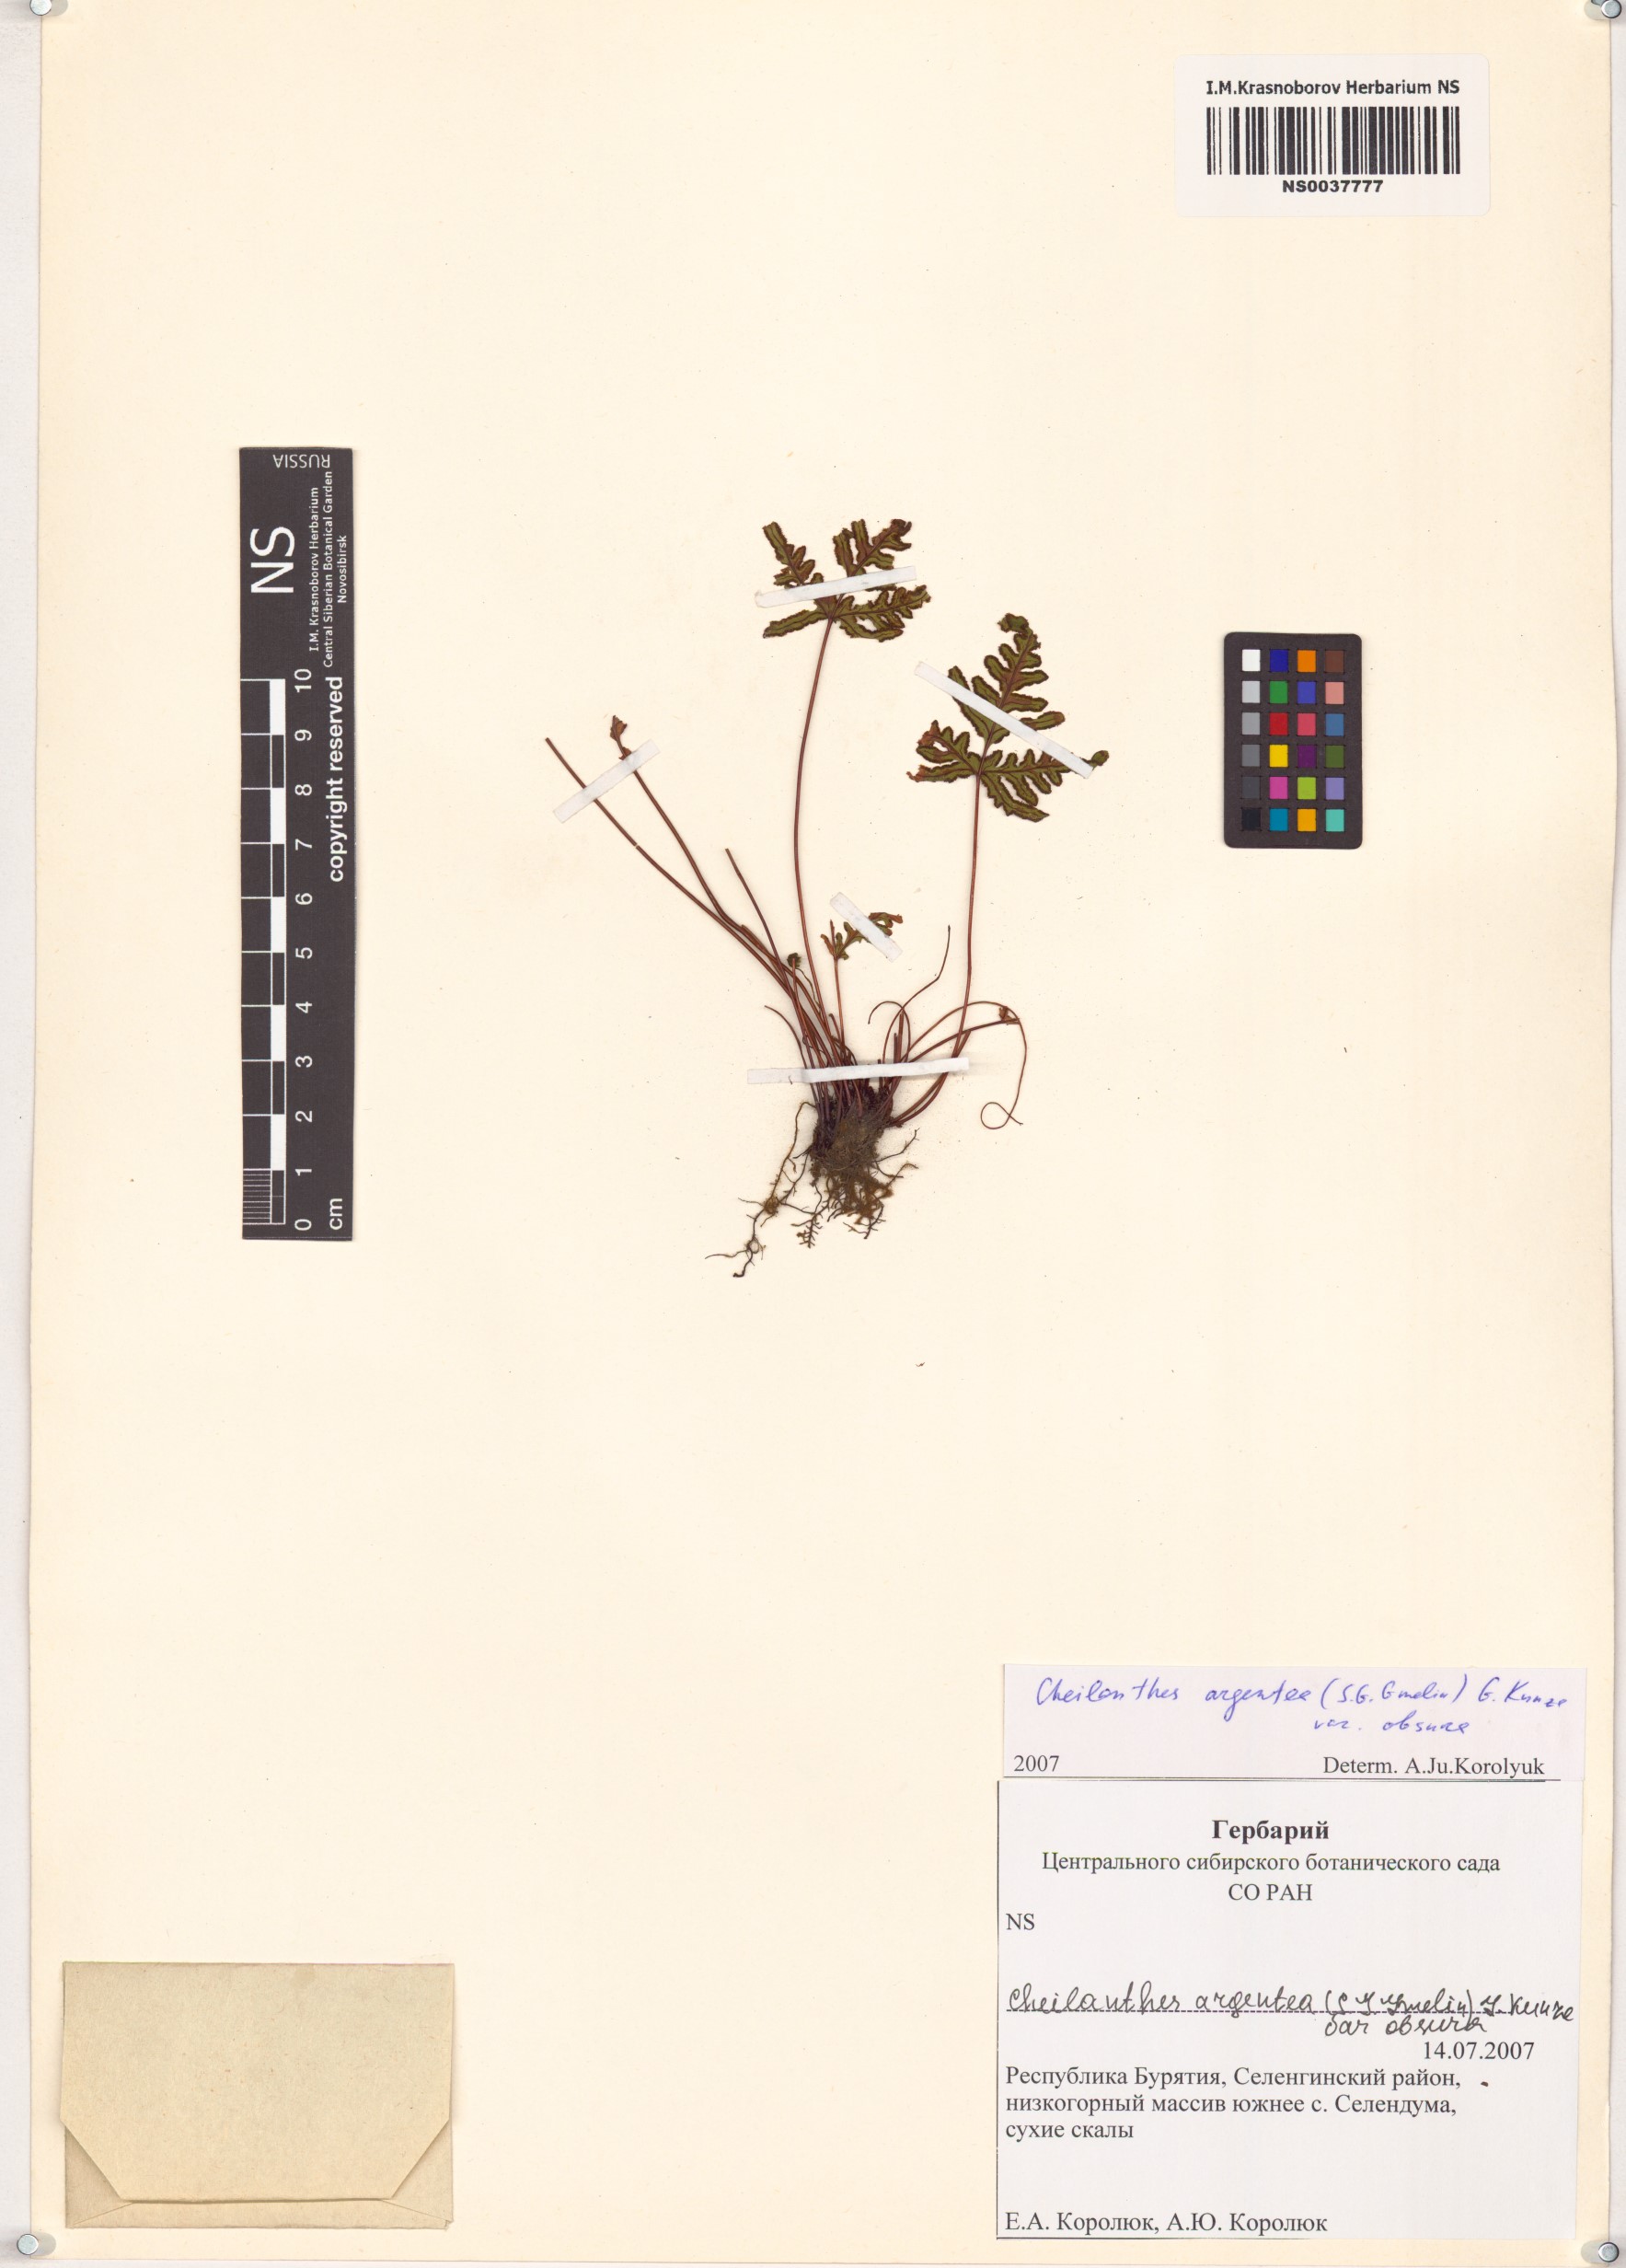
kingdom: Plantae
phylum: Tracheophyta
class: Polypodiopsida
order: Polypodiales
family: Pteridaceae
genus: Aleuritopteris
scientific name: Aleuritopteris argentea
